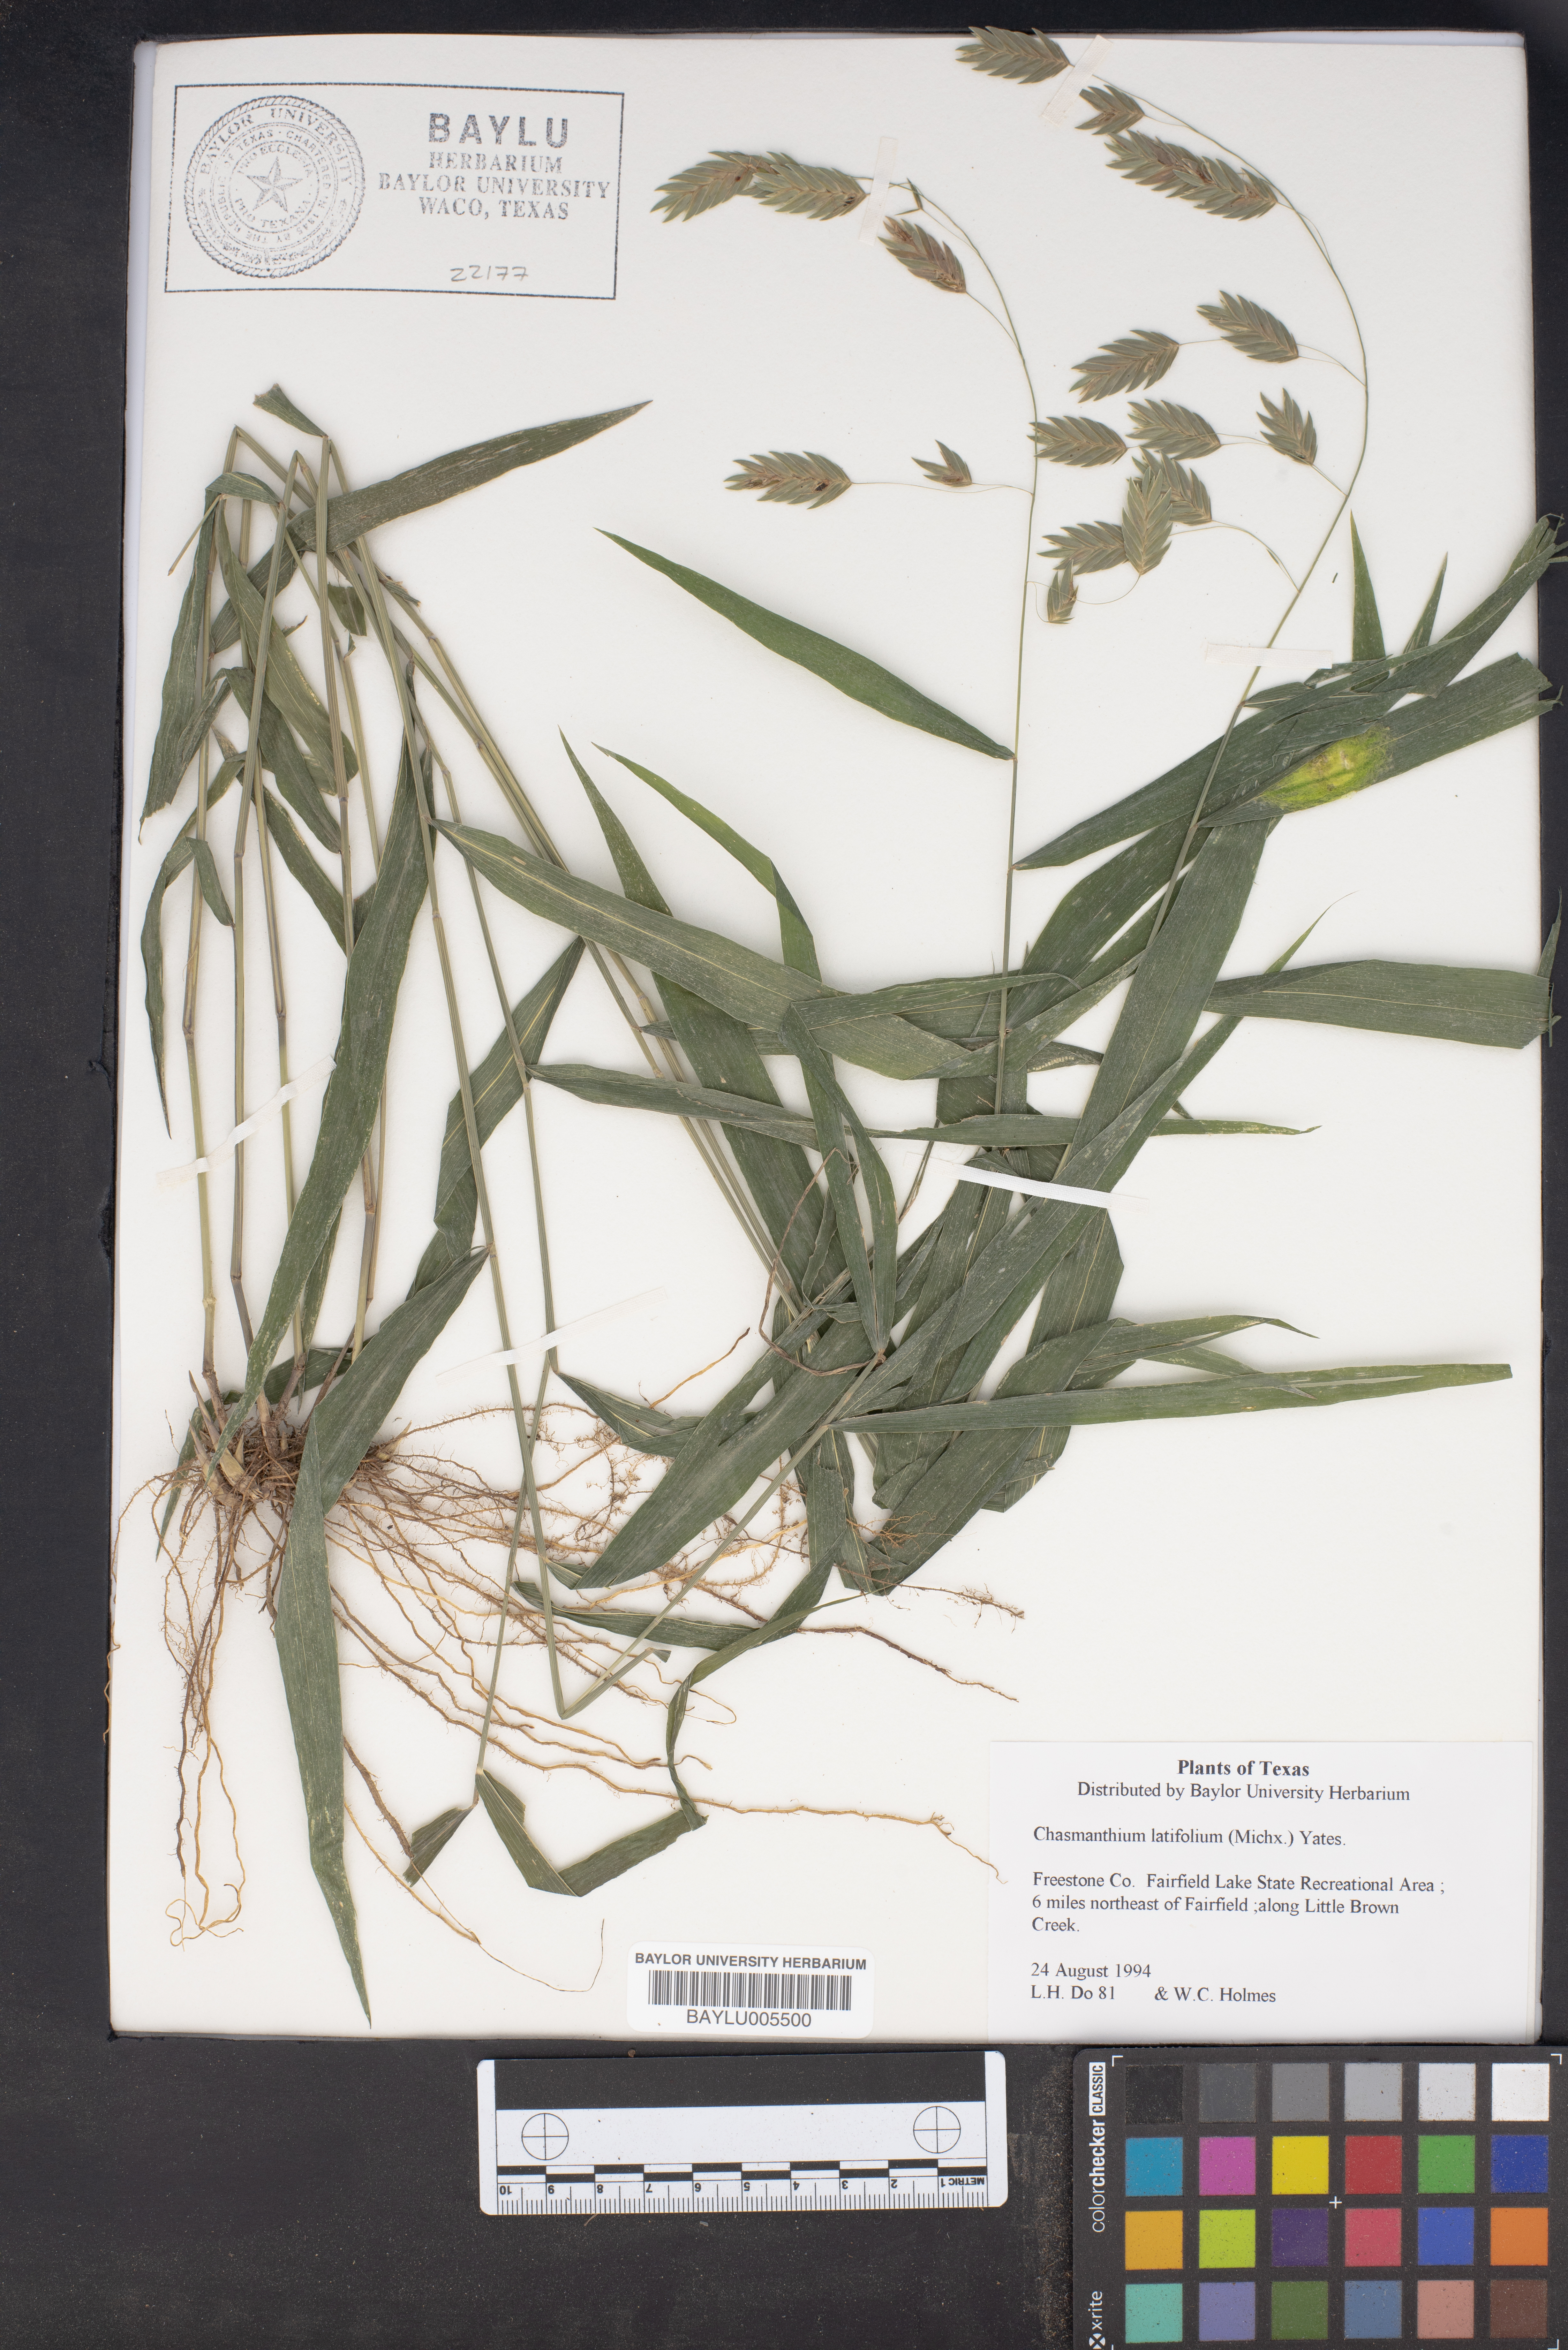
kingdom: Plantae
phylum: Tracheophyta
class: Liliopsida
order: Poales
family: Poaceae
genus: Chasmanthium
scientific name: Chasmanthium latifolium
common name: Broad-leaved chasmanthium
